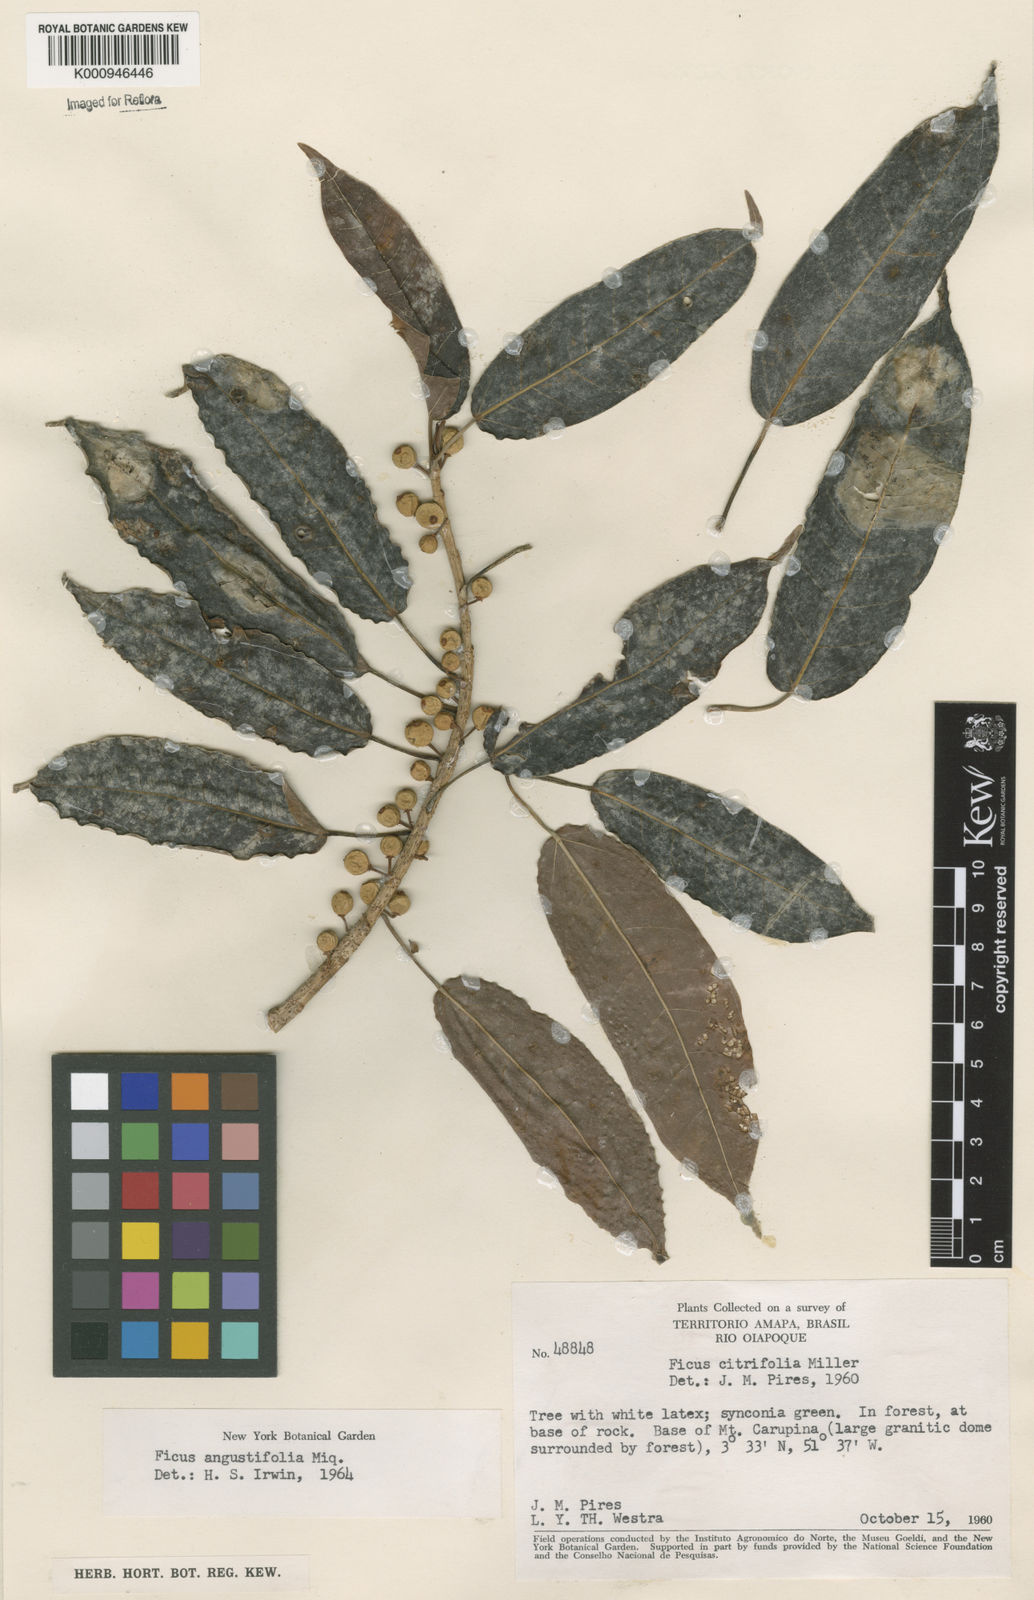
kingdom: Plantae
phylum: Tracheophyta
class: Magnoliopsida
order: Rosales
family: Moraceae
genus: Ficus
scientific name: Ficus amazonica
